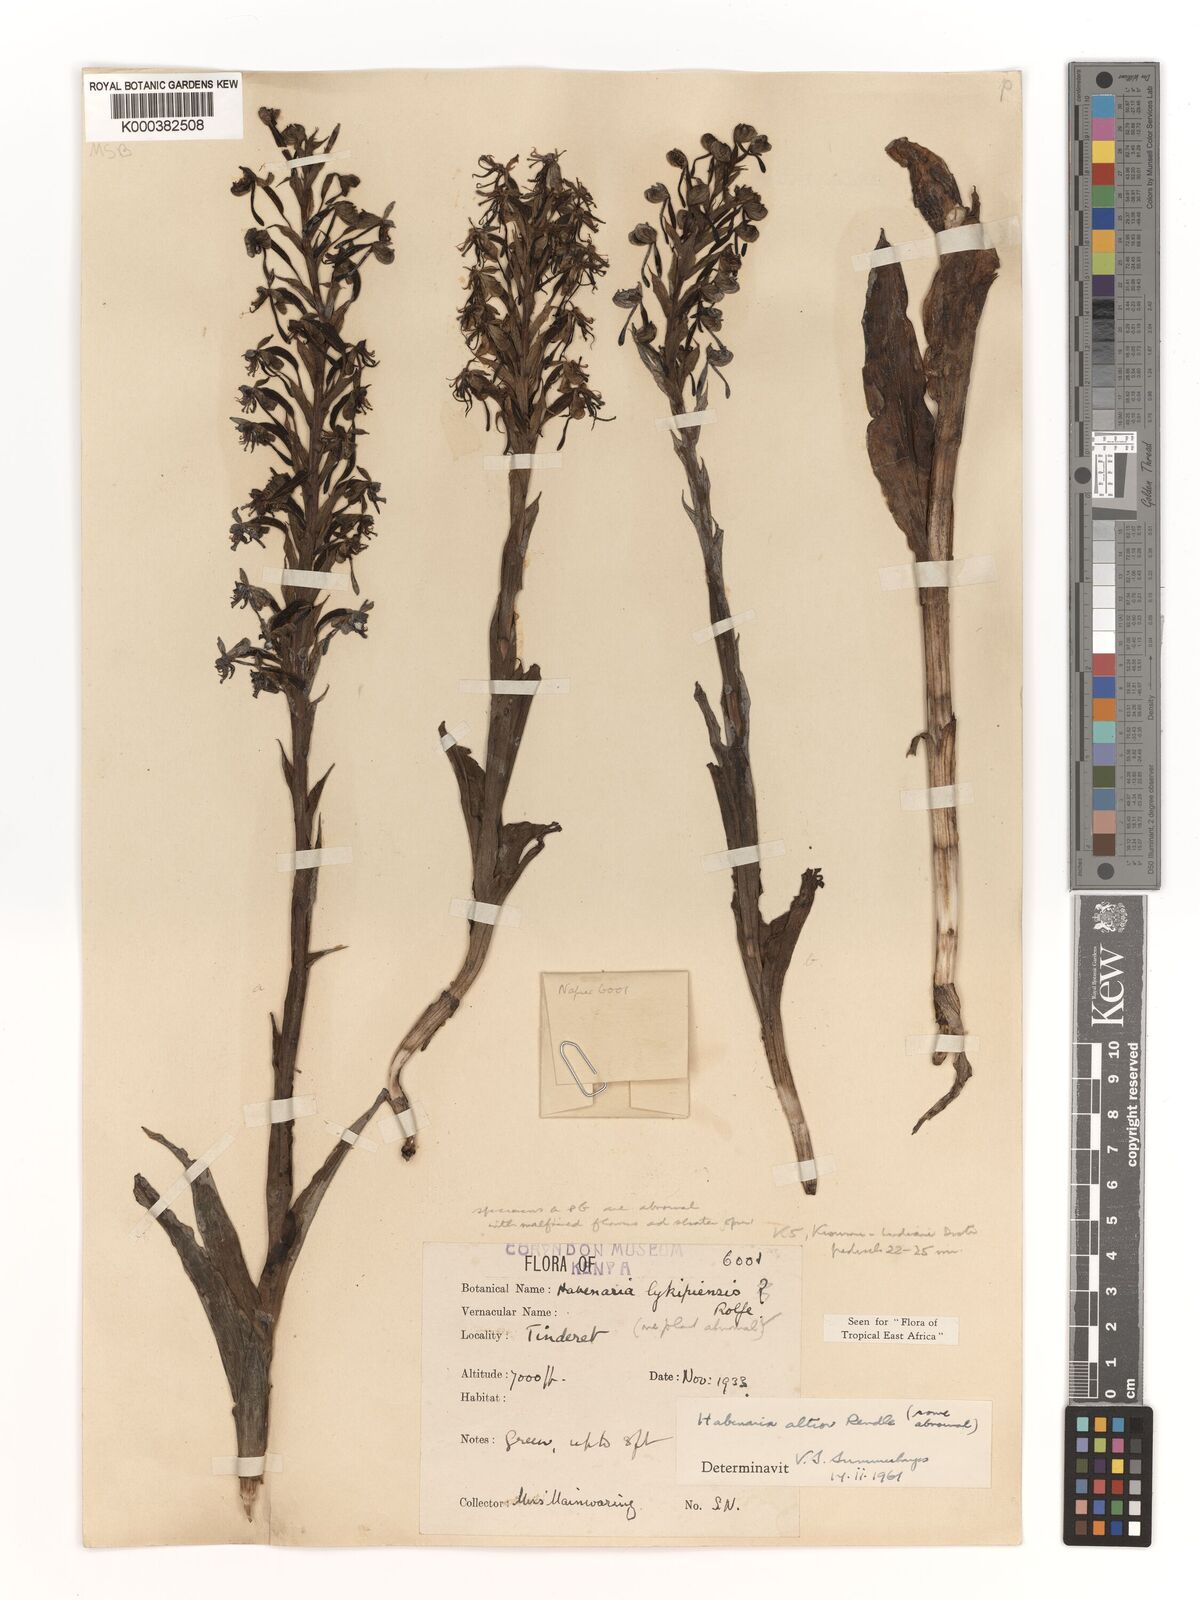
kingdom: Plantae
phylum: Tracheophyta
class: Liliopsida
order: Asparagales
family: Orchidaceae
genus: Habenaria
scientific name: Habenaria altior
